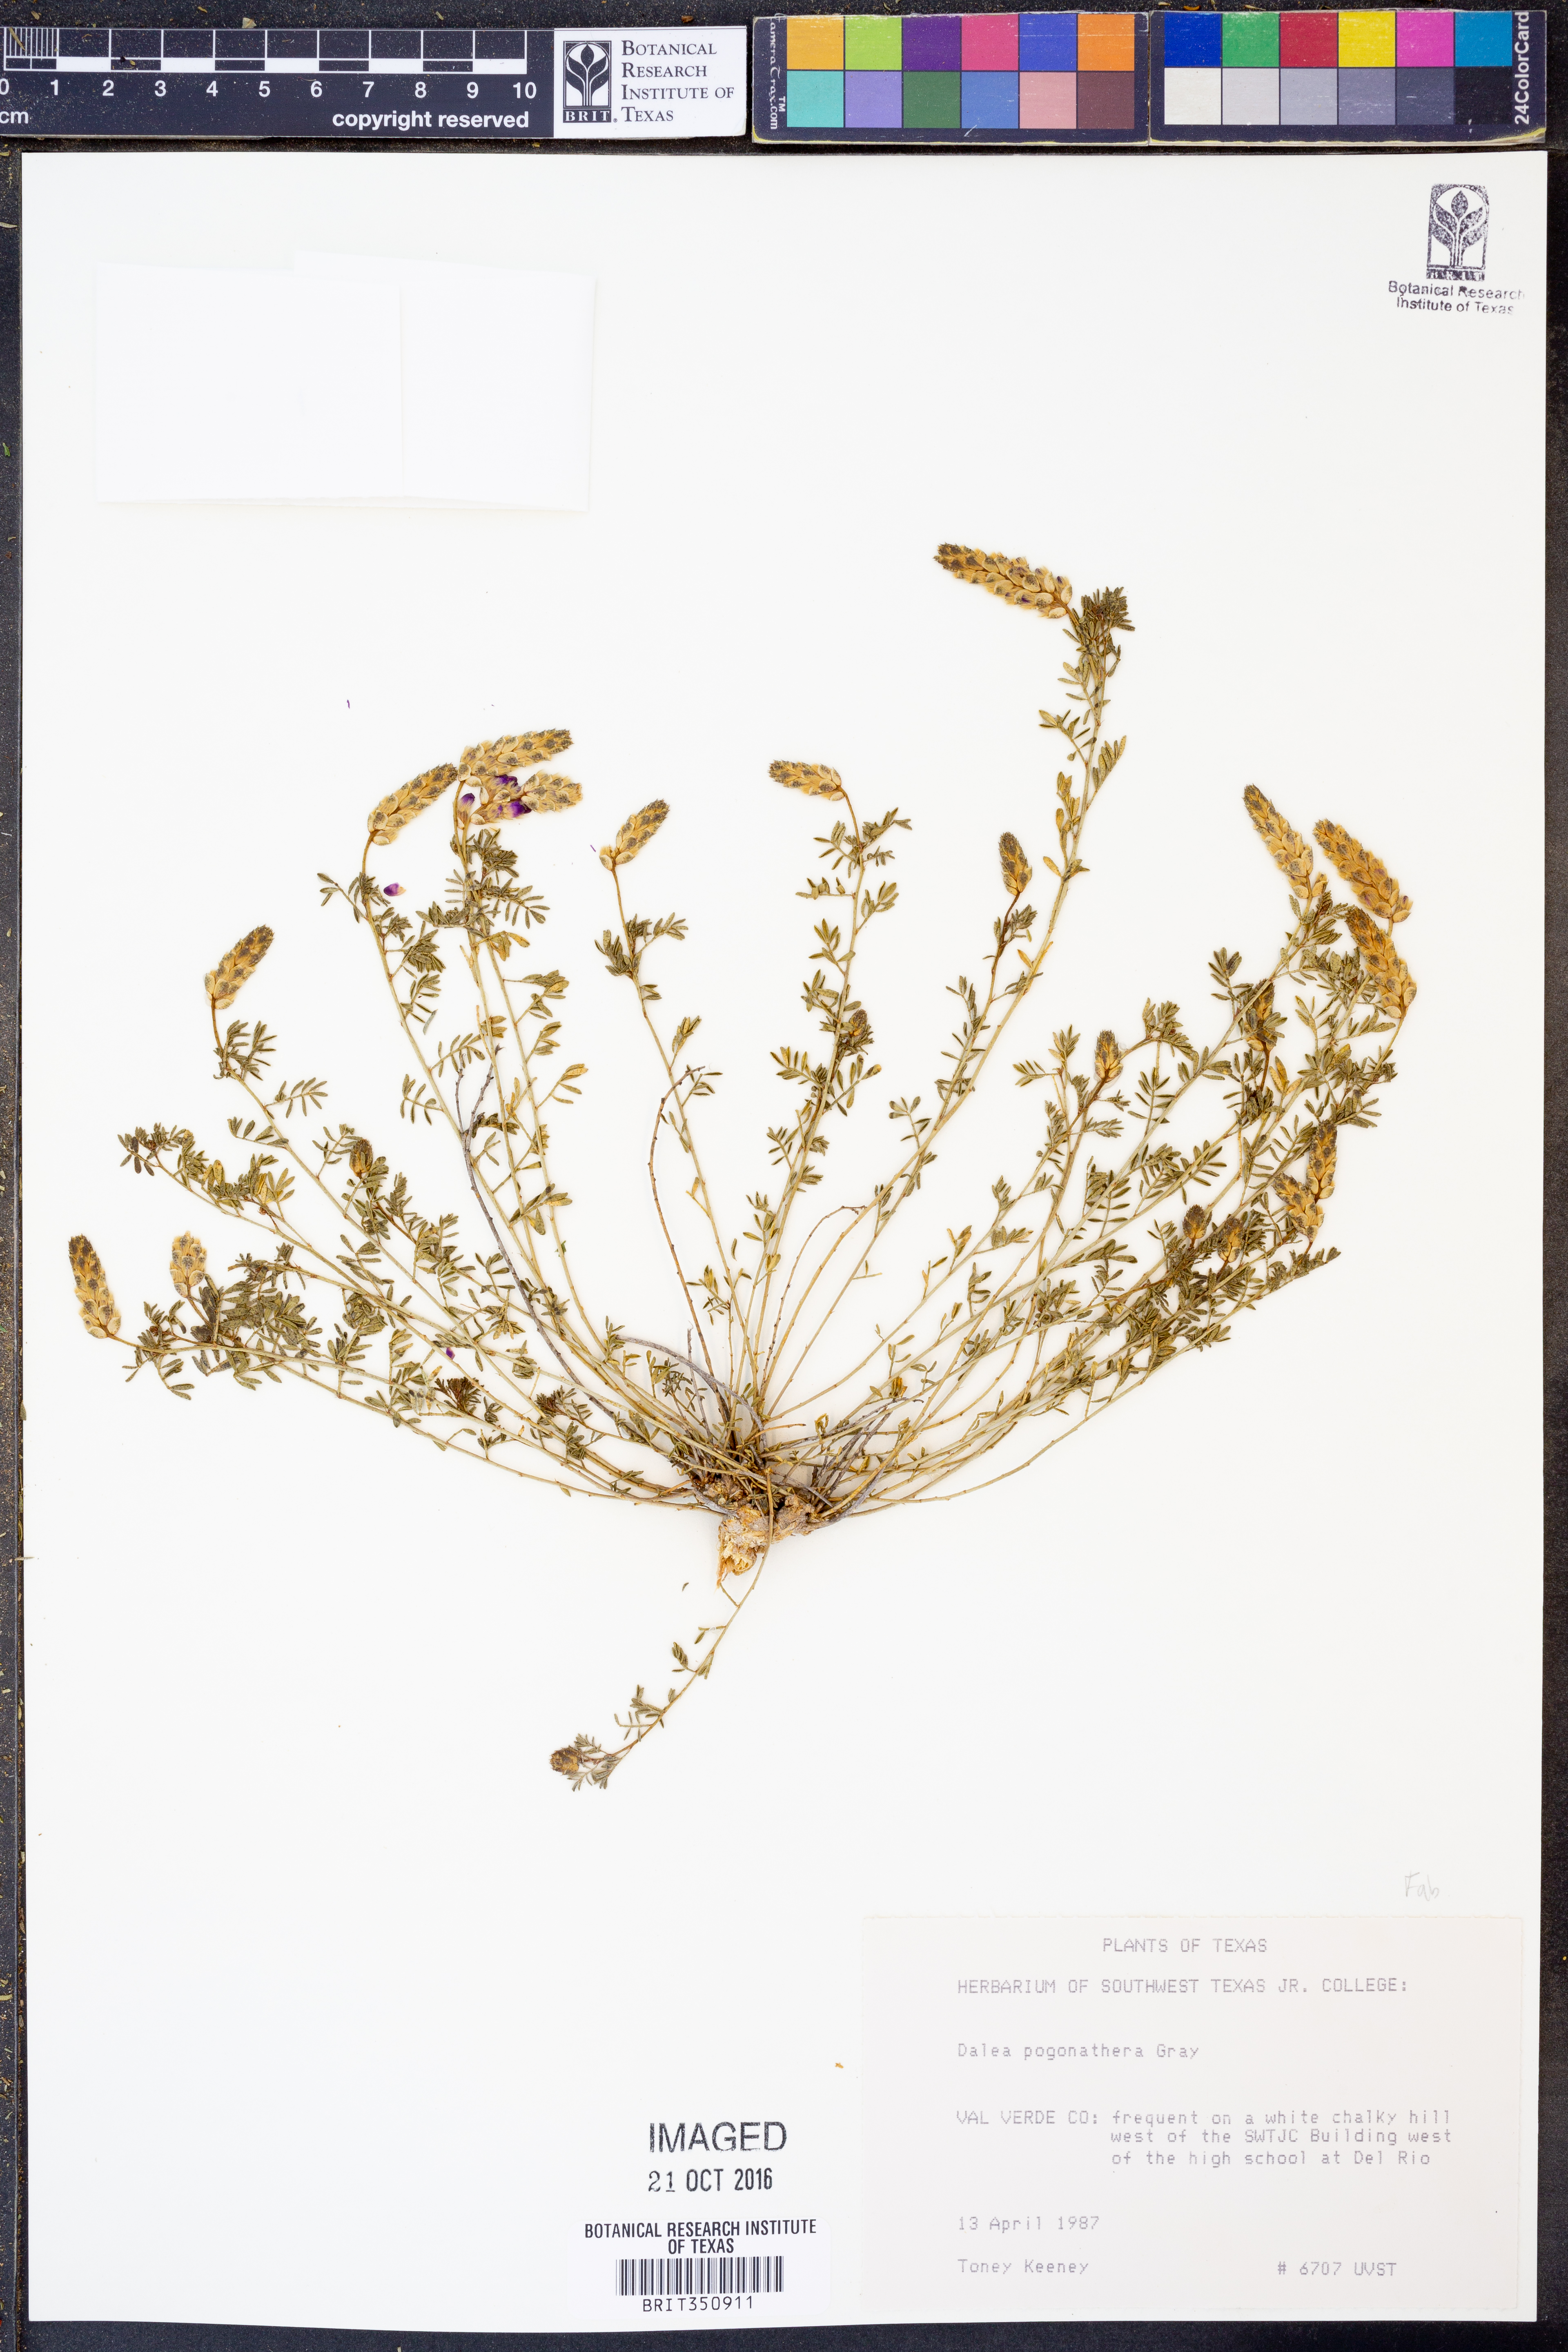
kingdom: Plantae
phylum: Tracheophyta
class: Magnoliopsida
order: Fabales
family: Fabaceae
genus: Dalea
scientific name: Dalea pogonathera
